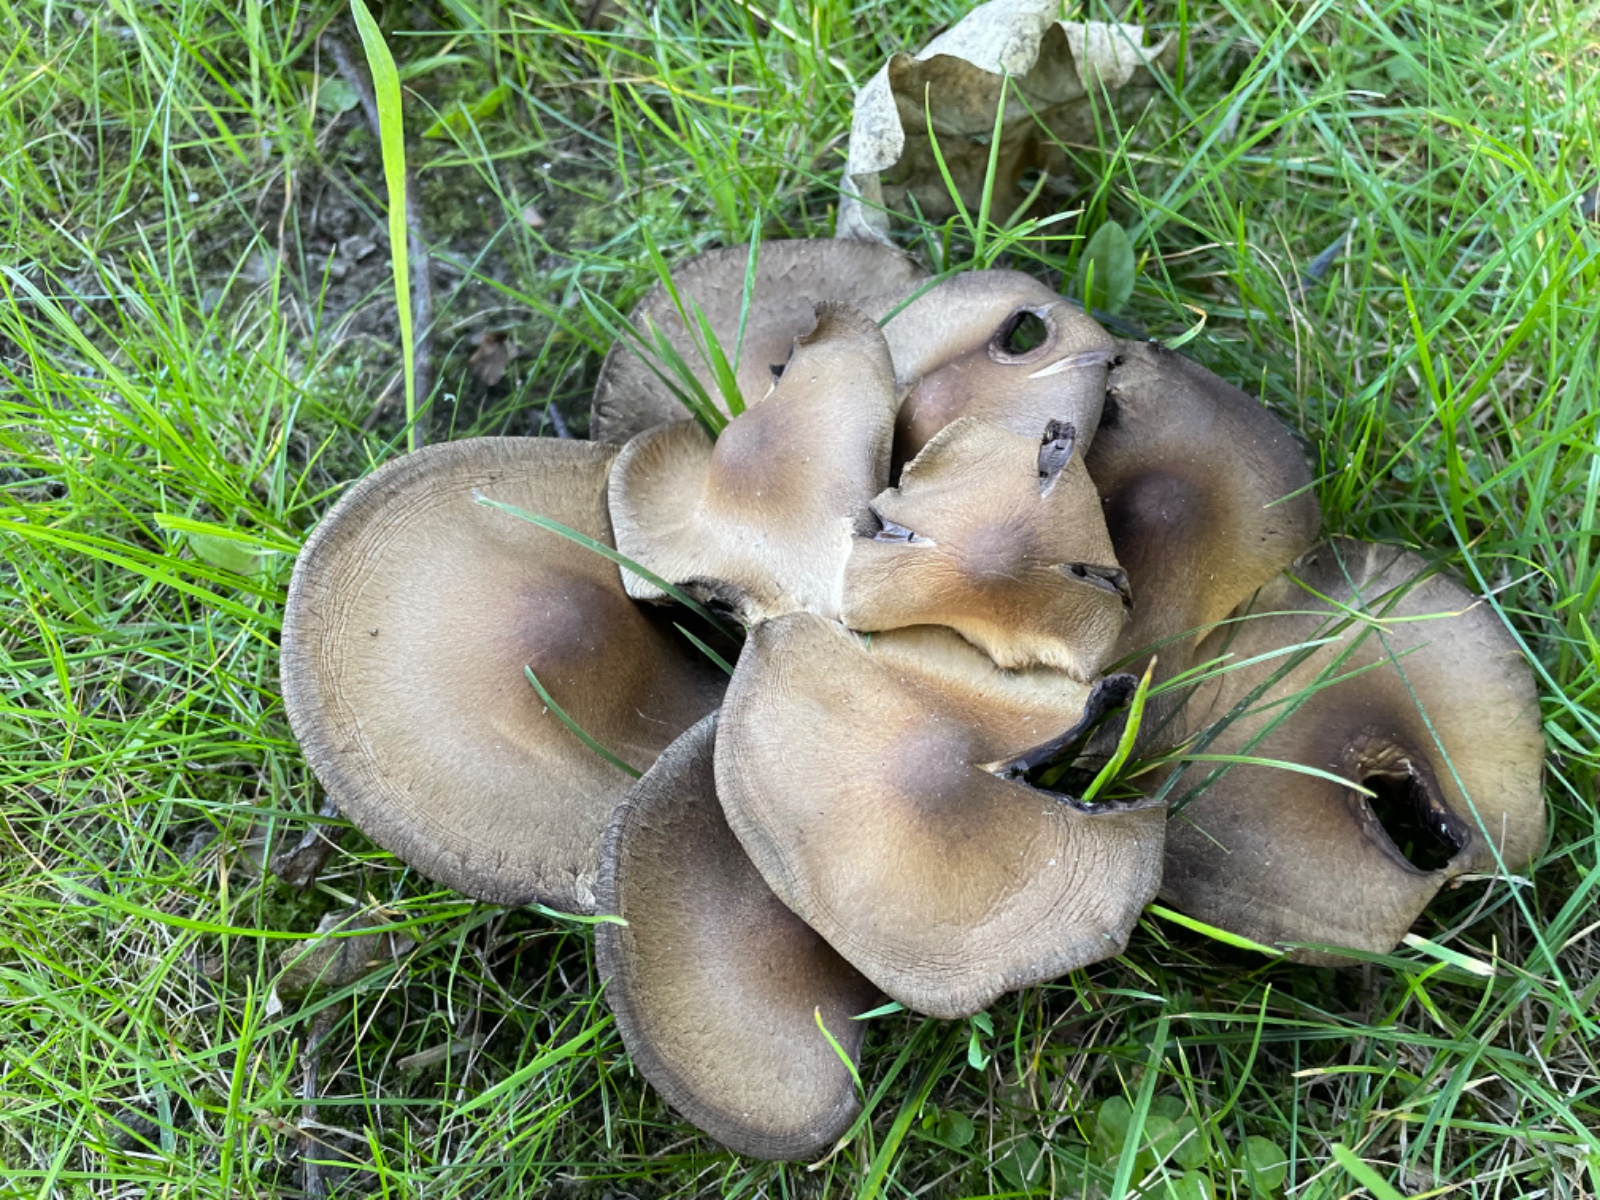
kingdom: Fungi
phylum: Basidiomycota
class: Agaricomycetes
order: Agaricales
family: Psathyrellaceae
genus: Lacrymaria
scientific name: Lacrymaria lacrymabunda
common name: grædende mørkhat
